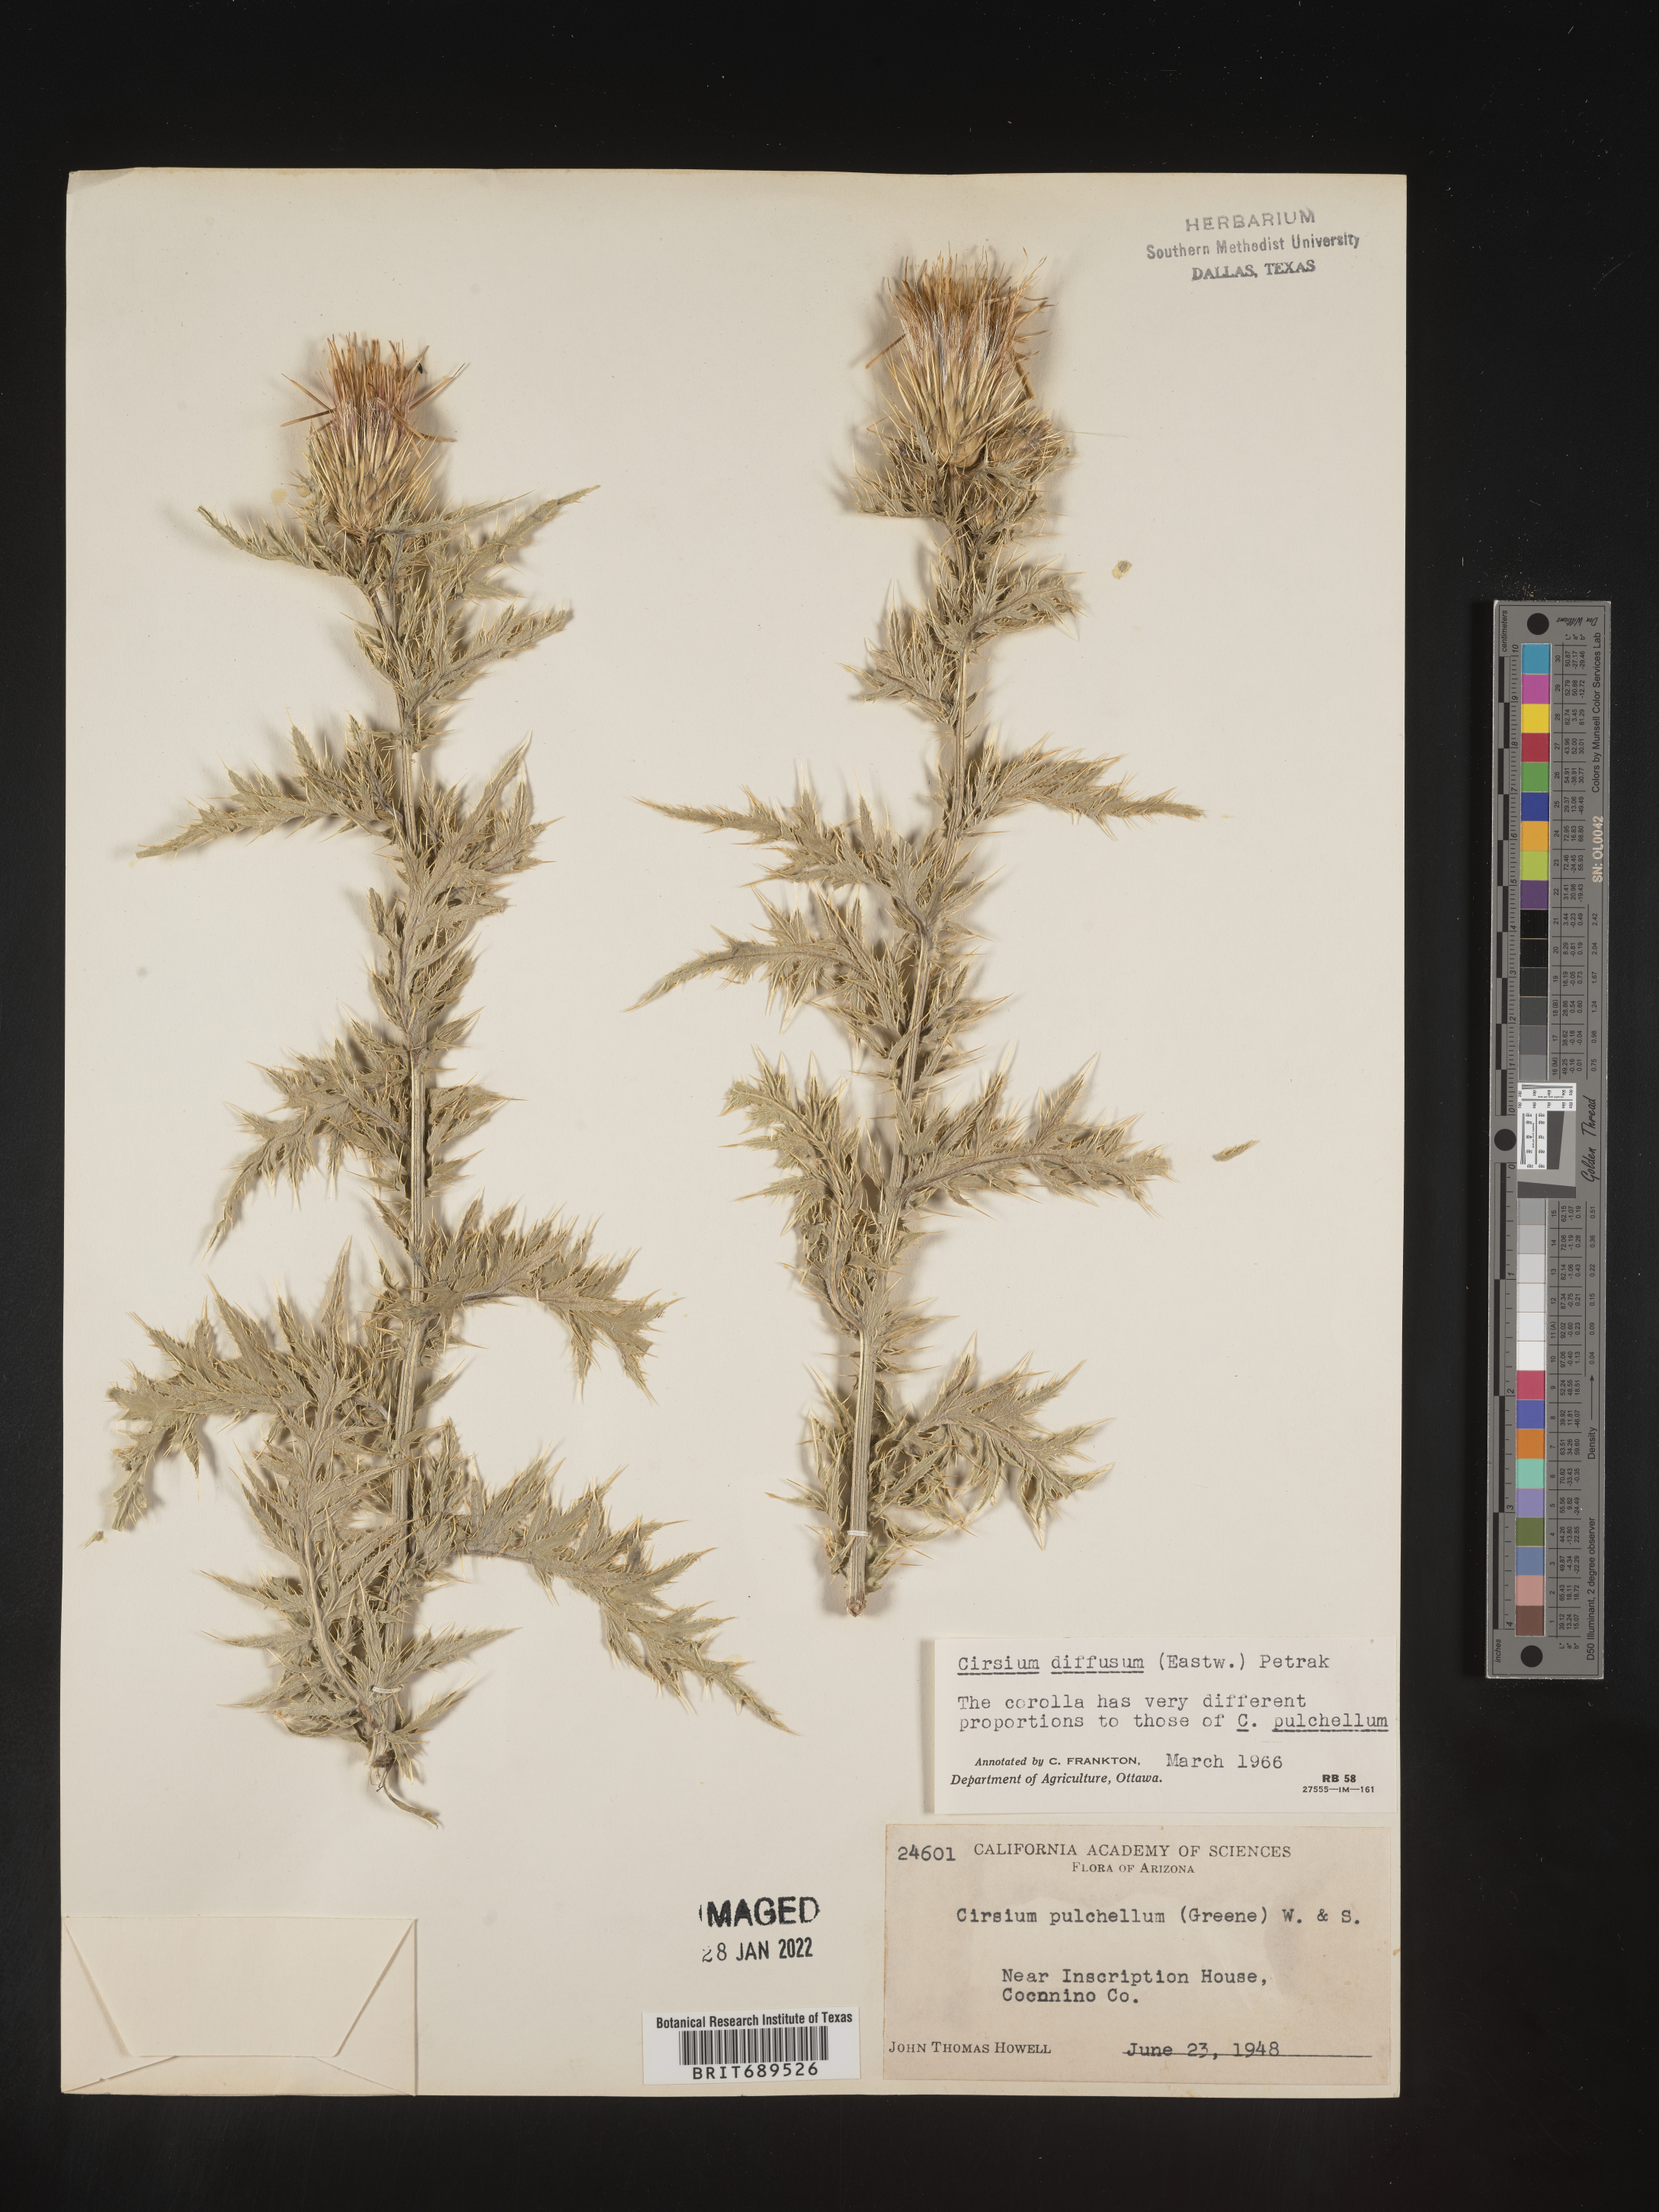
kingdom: Plantae
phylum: Tracheophyta
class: Magnoliopsida
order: Asterales
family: Asteraceae
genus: Cirsium
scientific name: Cirsium pulchellum
